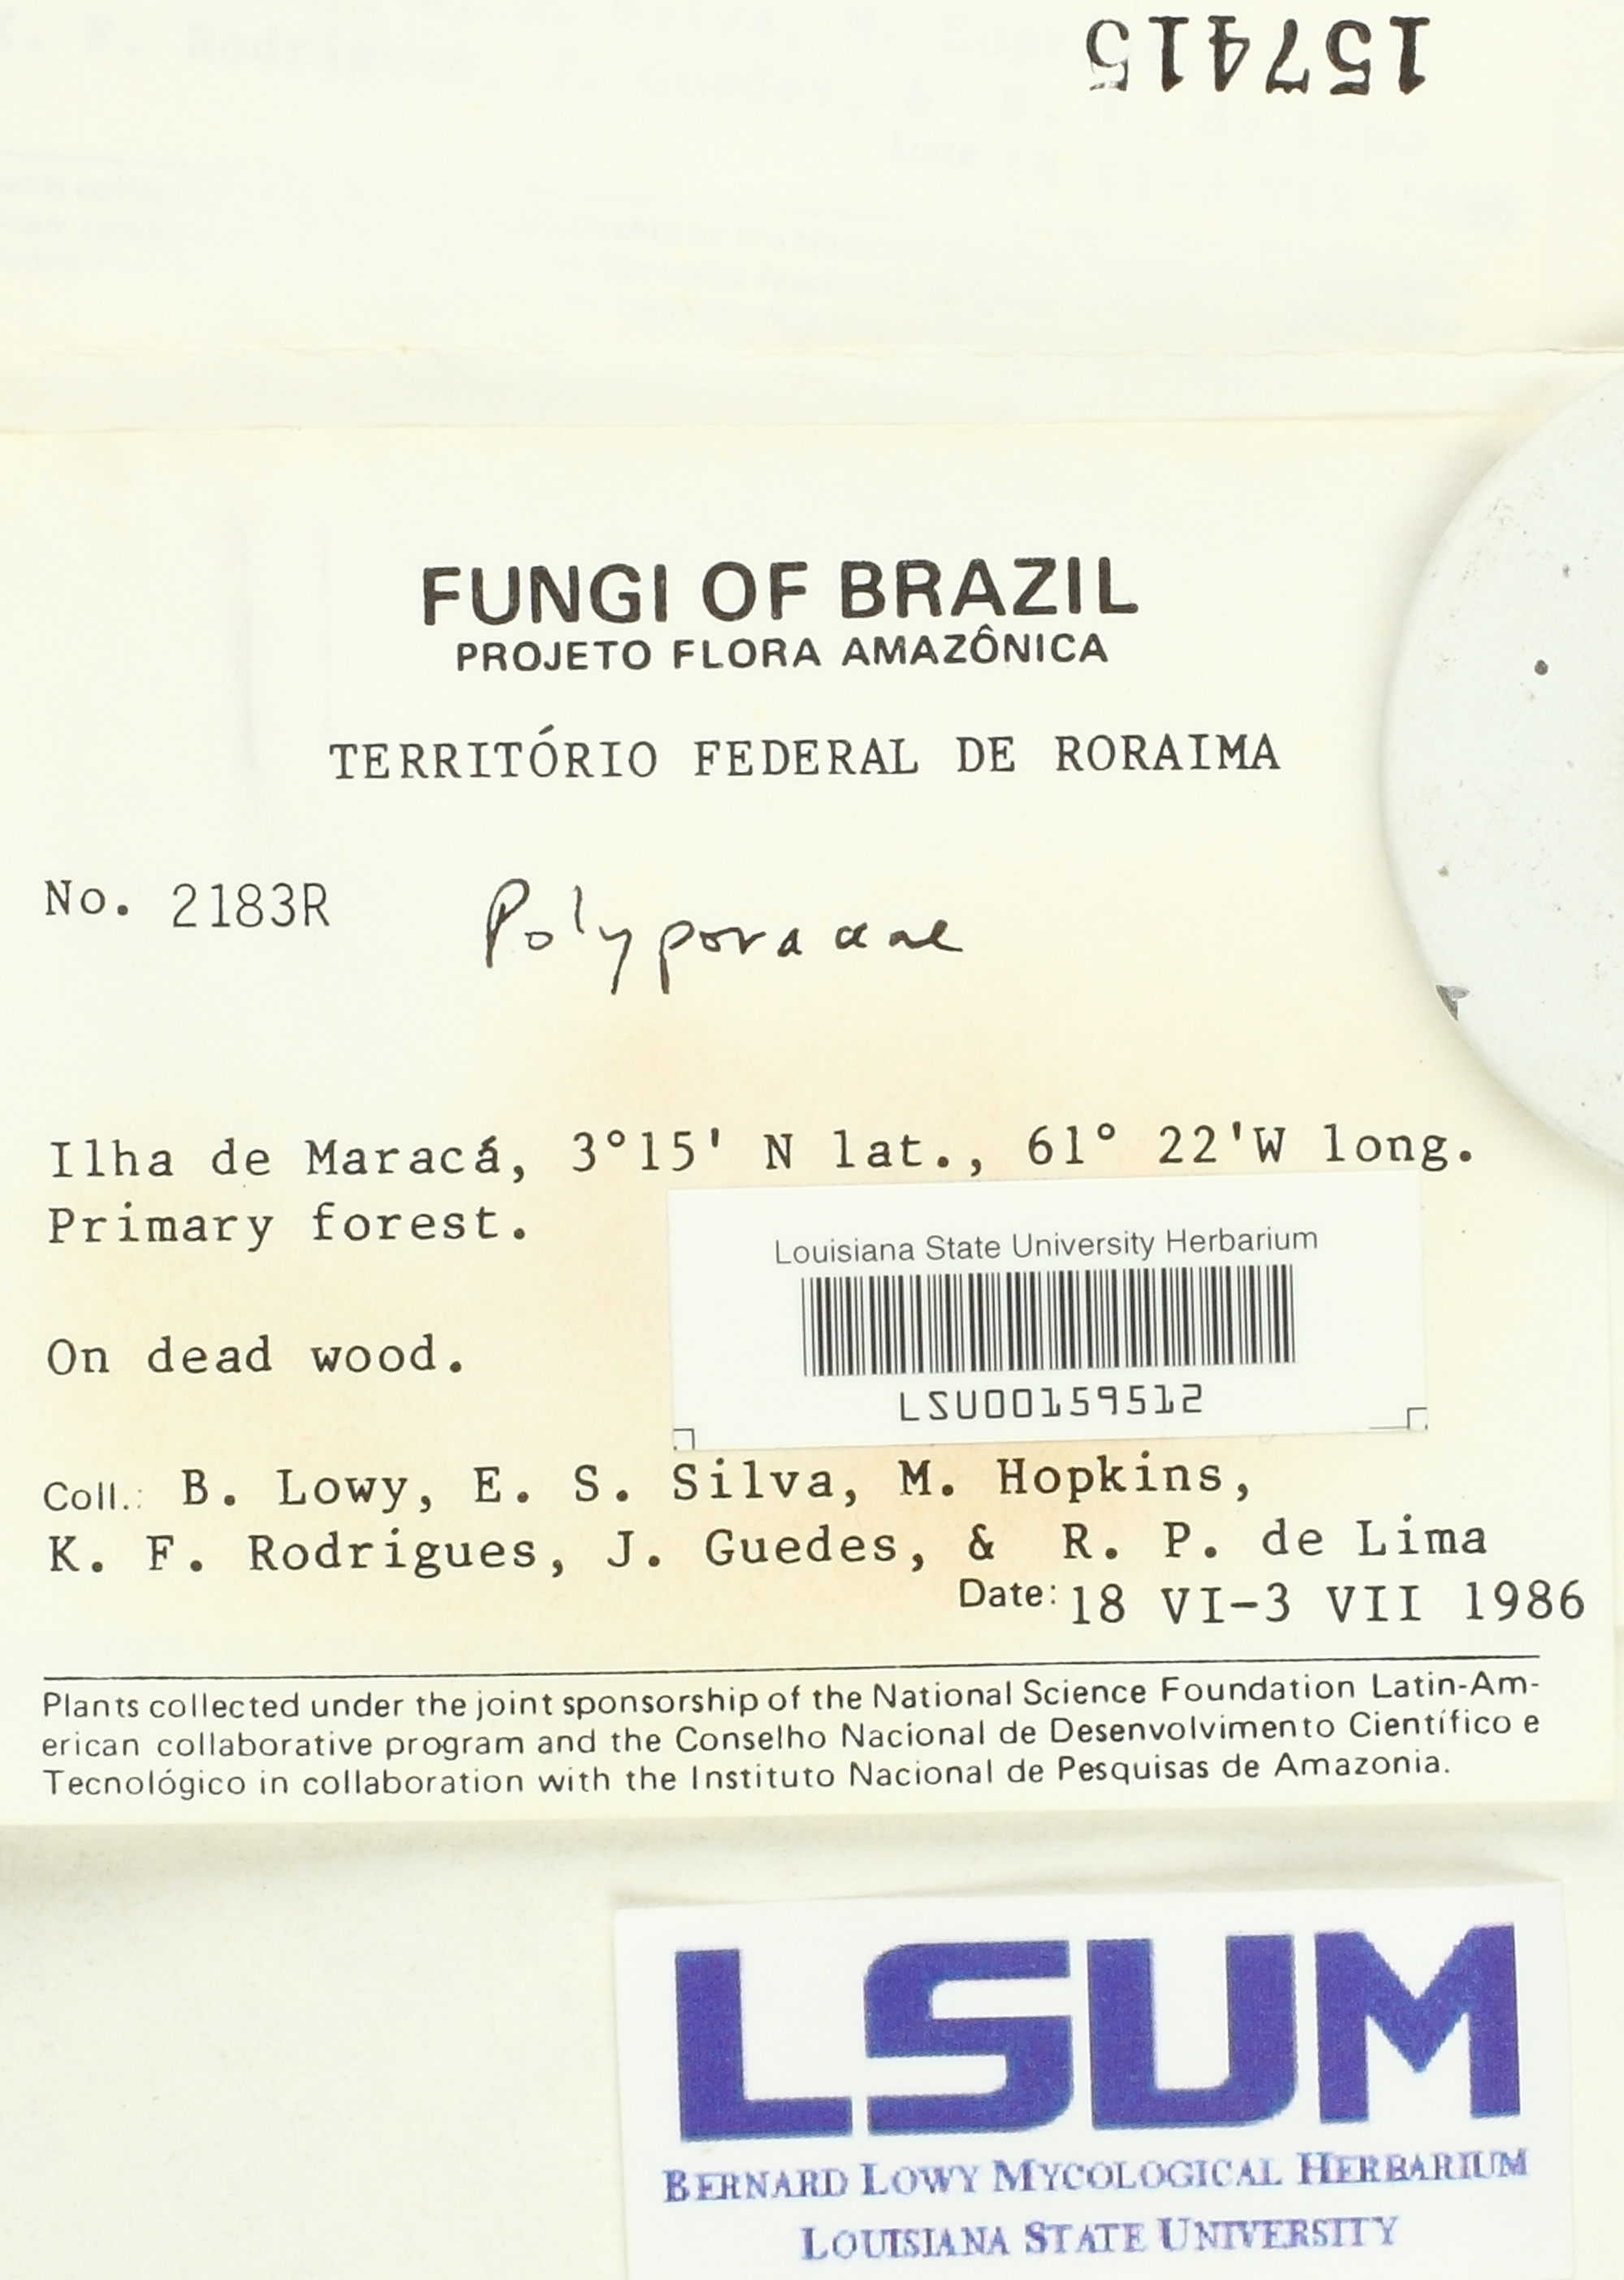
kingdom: Fungi
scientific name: Fungi
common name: Fungi
